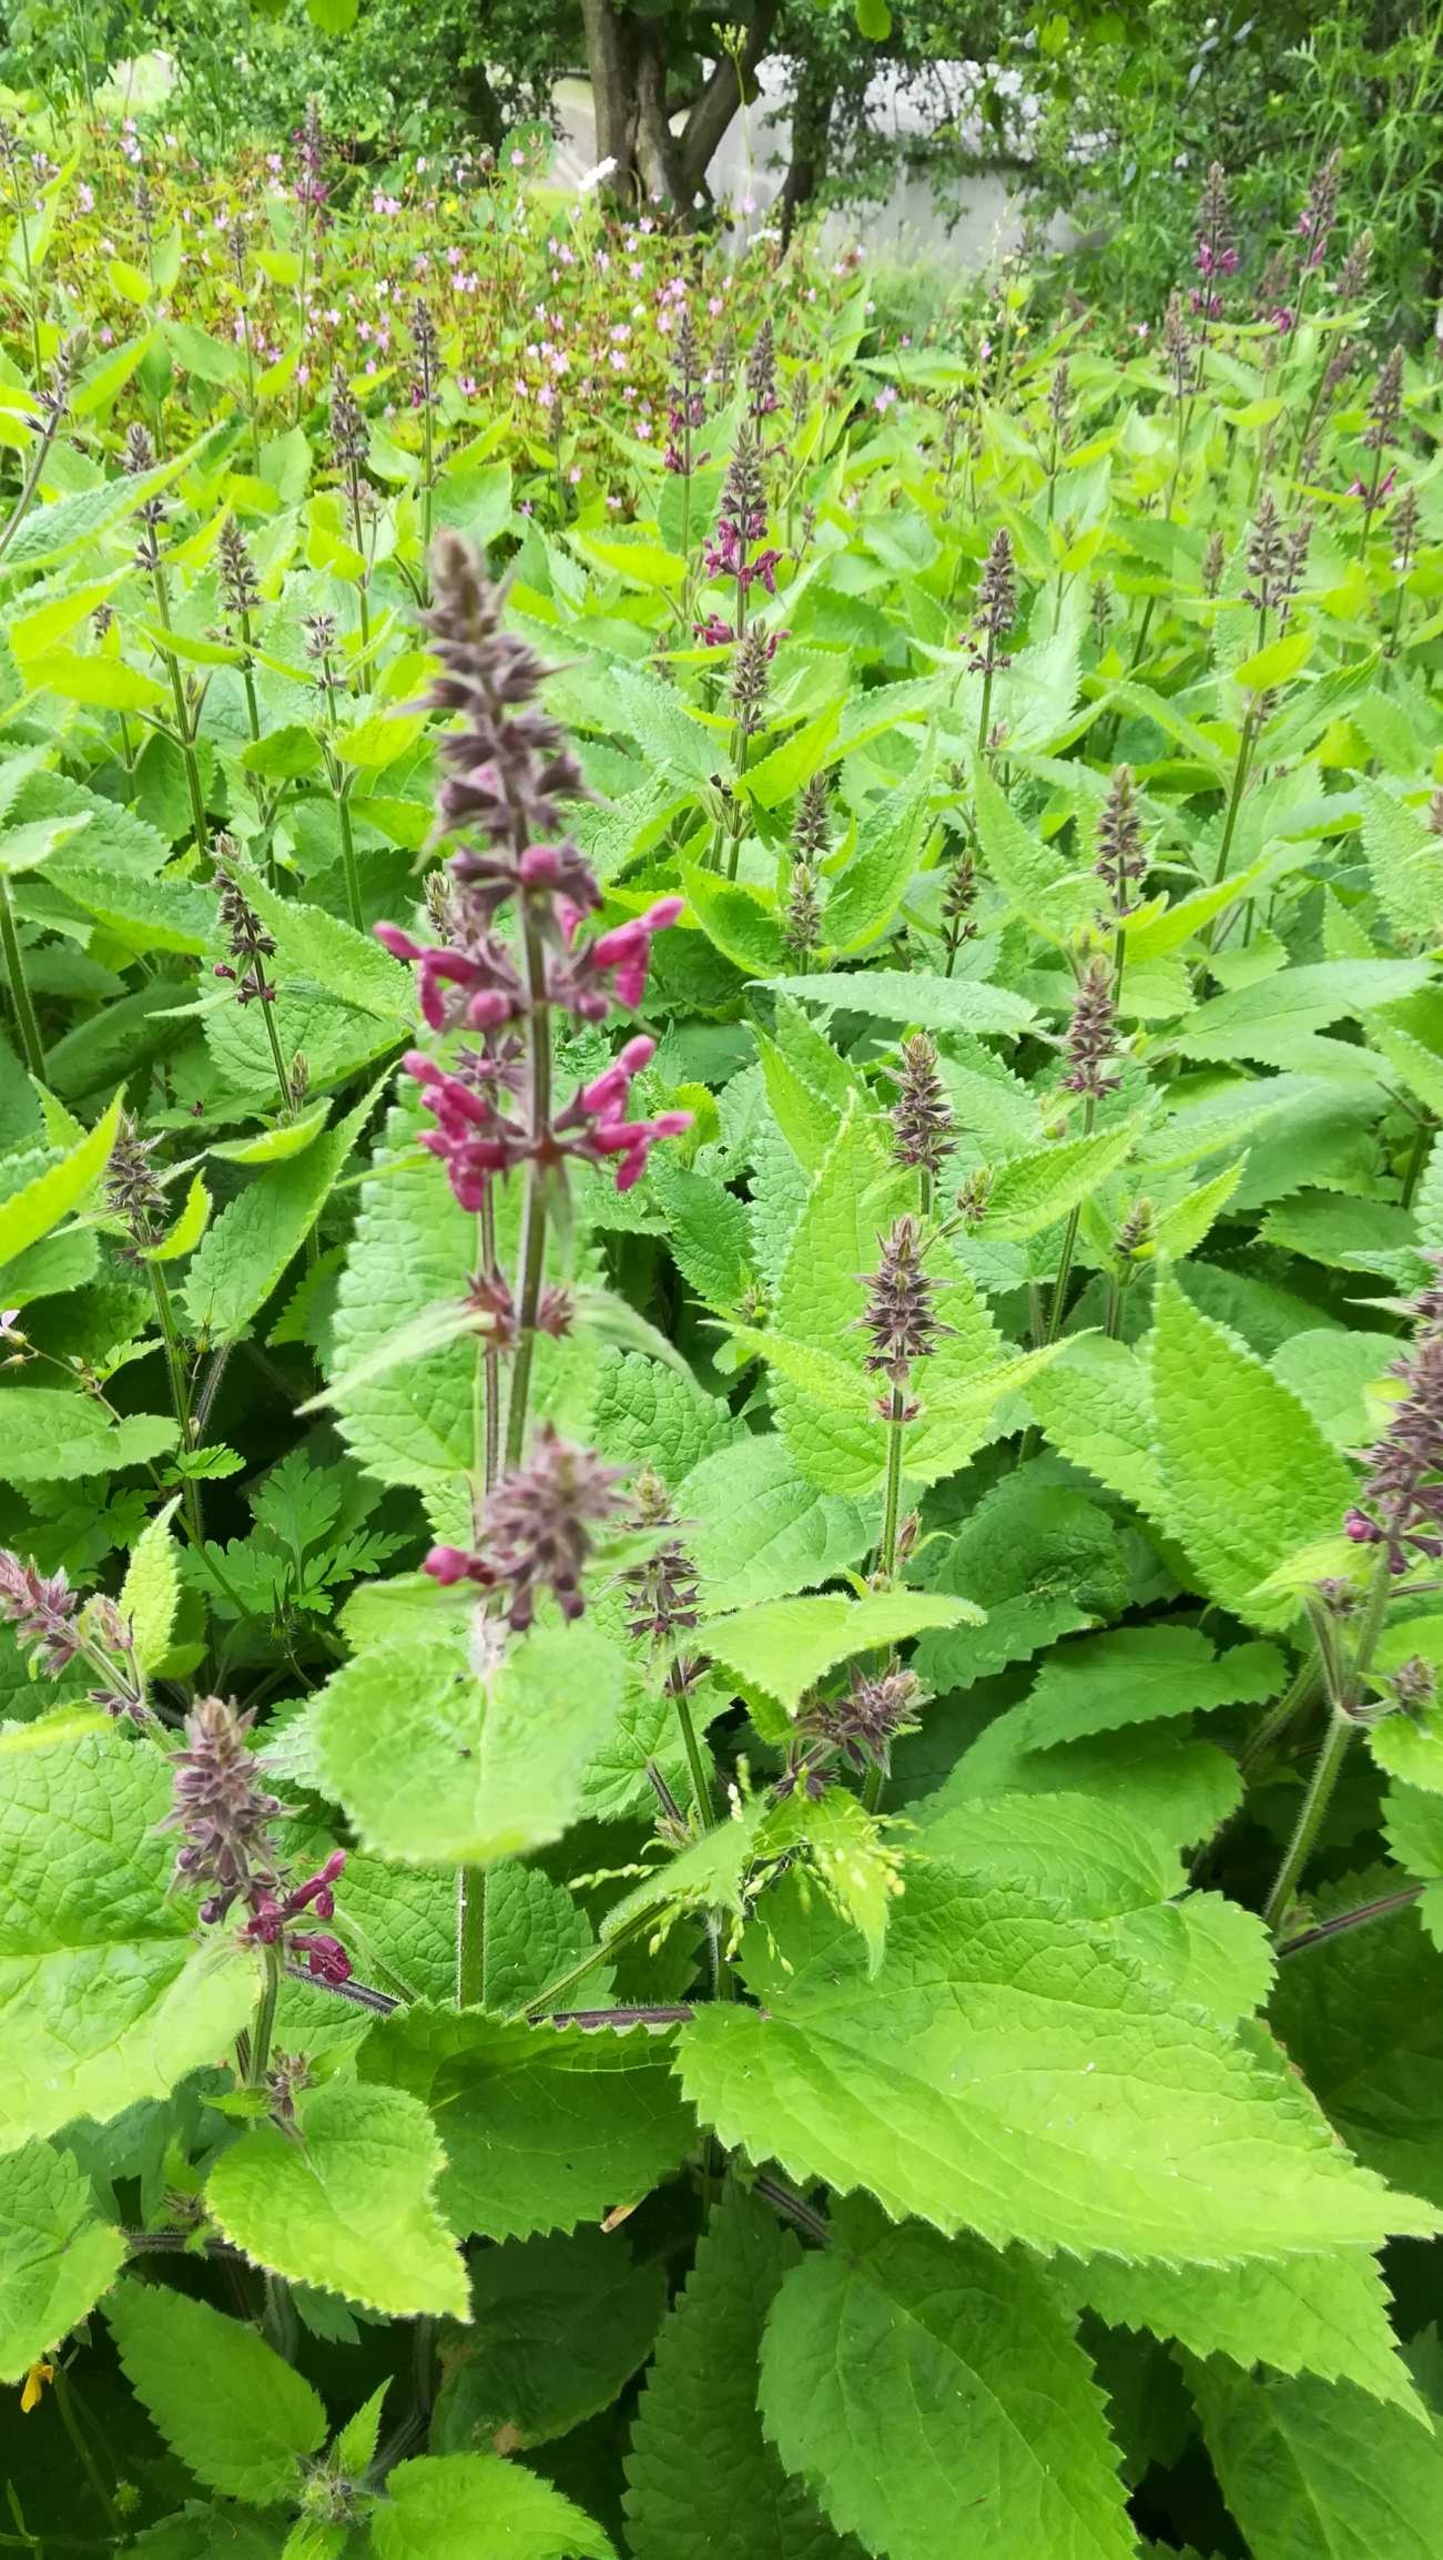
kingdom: Plantae
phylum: Tracheophyta
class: Magnoliopsida
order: Lamiales
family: Lamiaceae
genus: Stachys
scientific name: Stachys sylvatica
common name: Skov-galtetand
